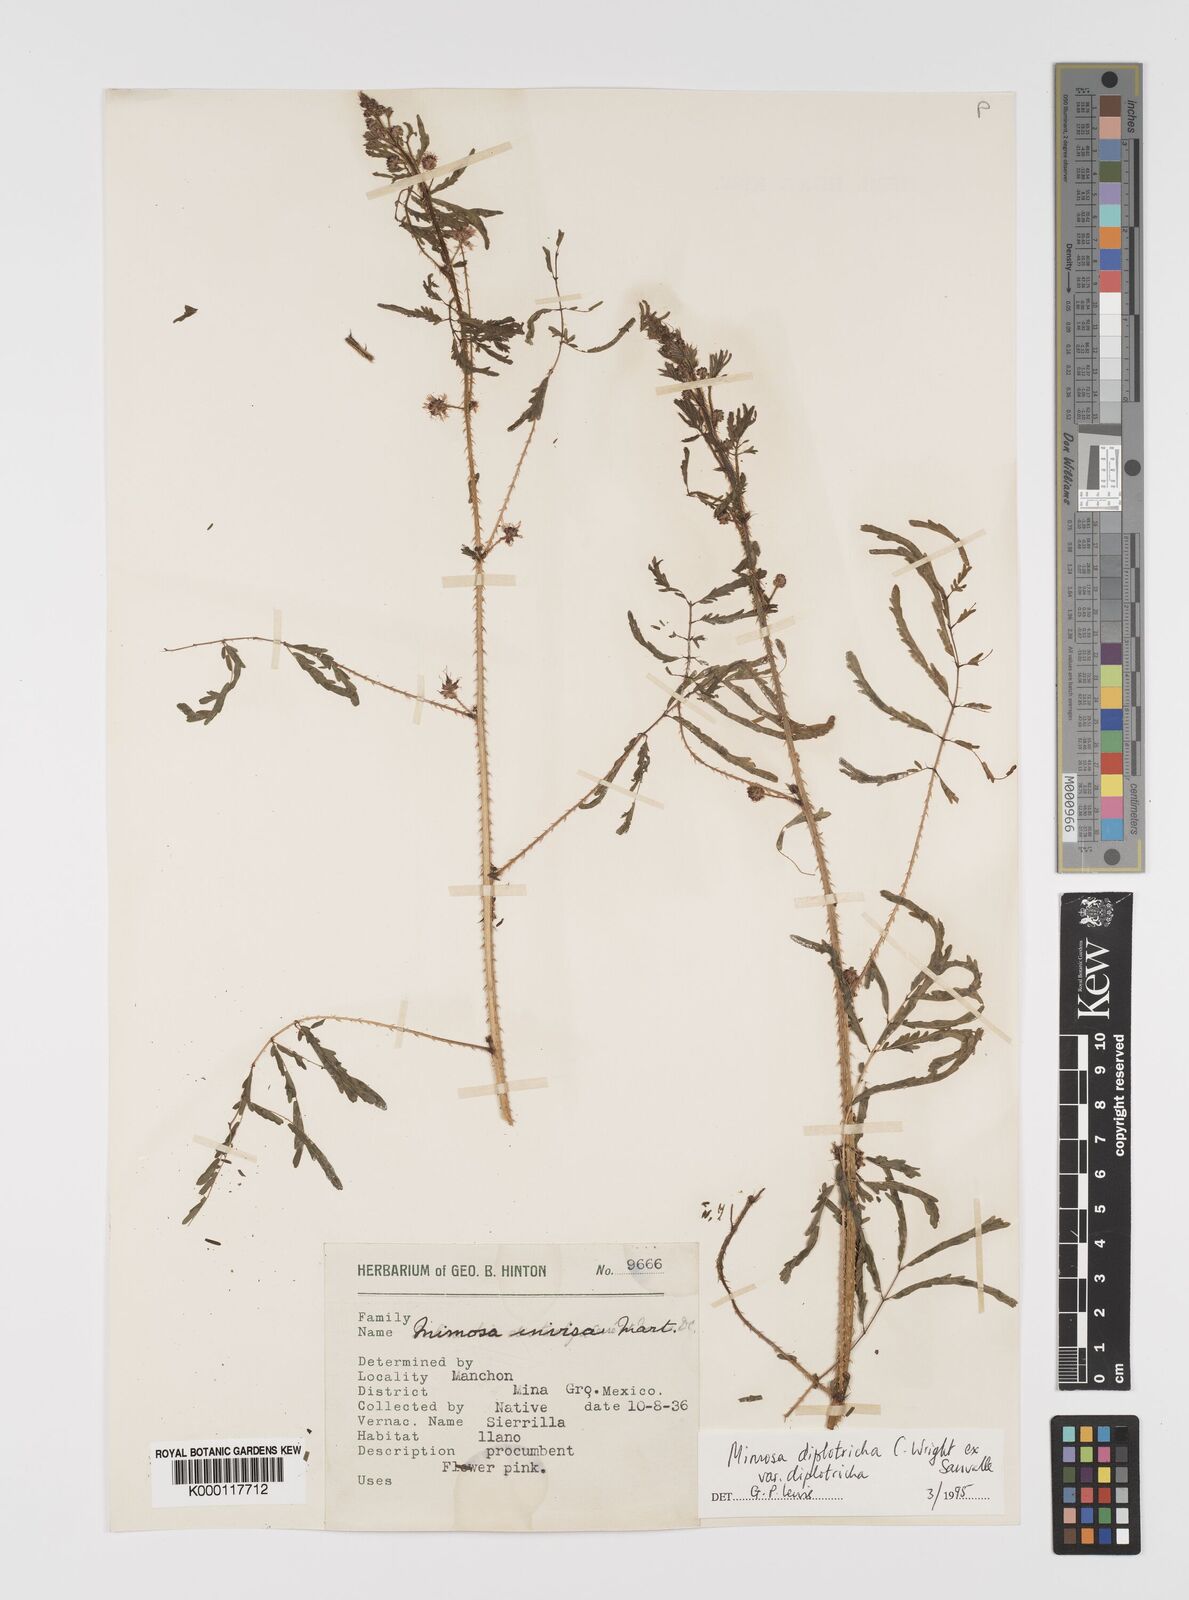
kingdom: Plantae
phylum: Tracheophyta
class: Magnoliopsida
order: Fabales
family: Fabaceae
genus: Mimosa
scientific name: Mimosa diplotricha
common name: Giant sensitive-plant
